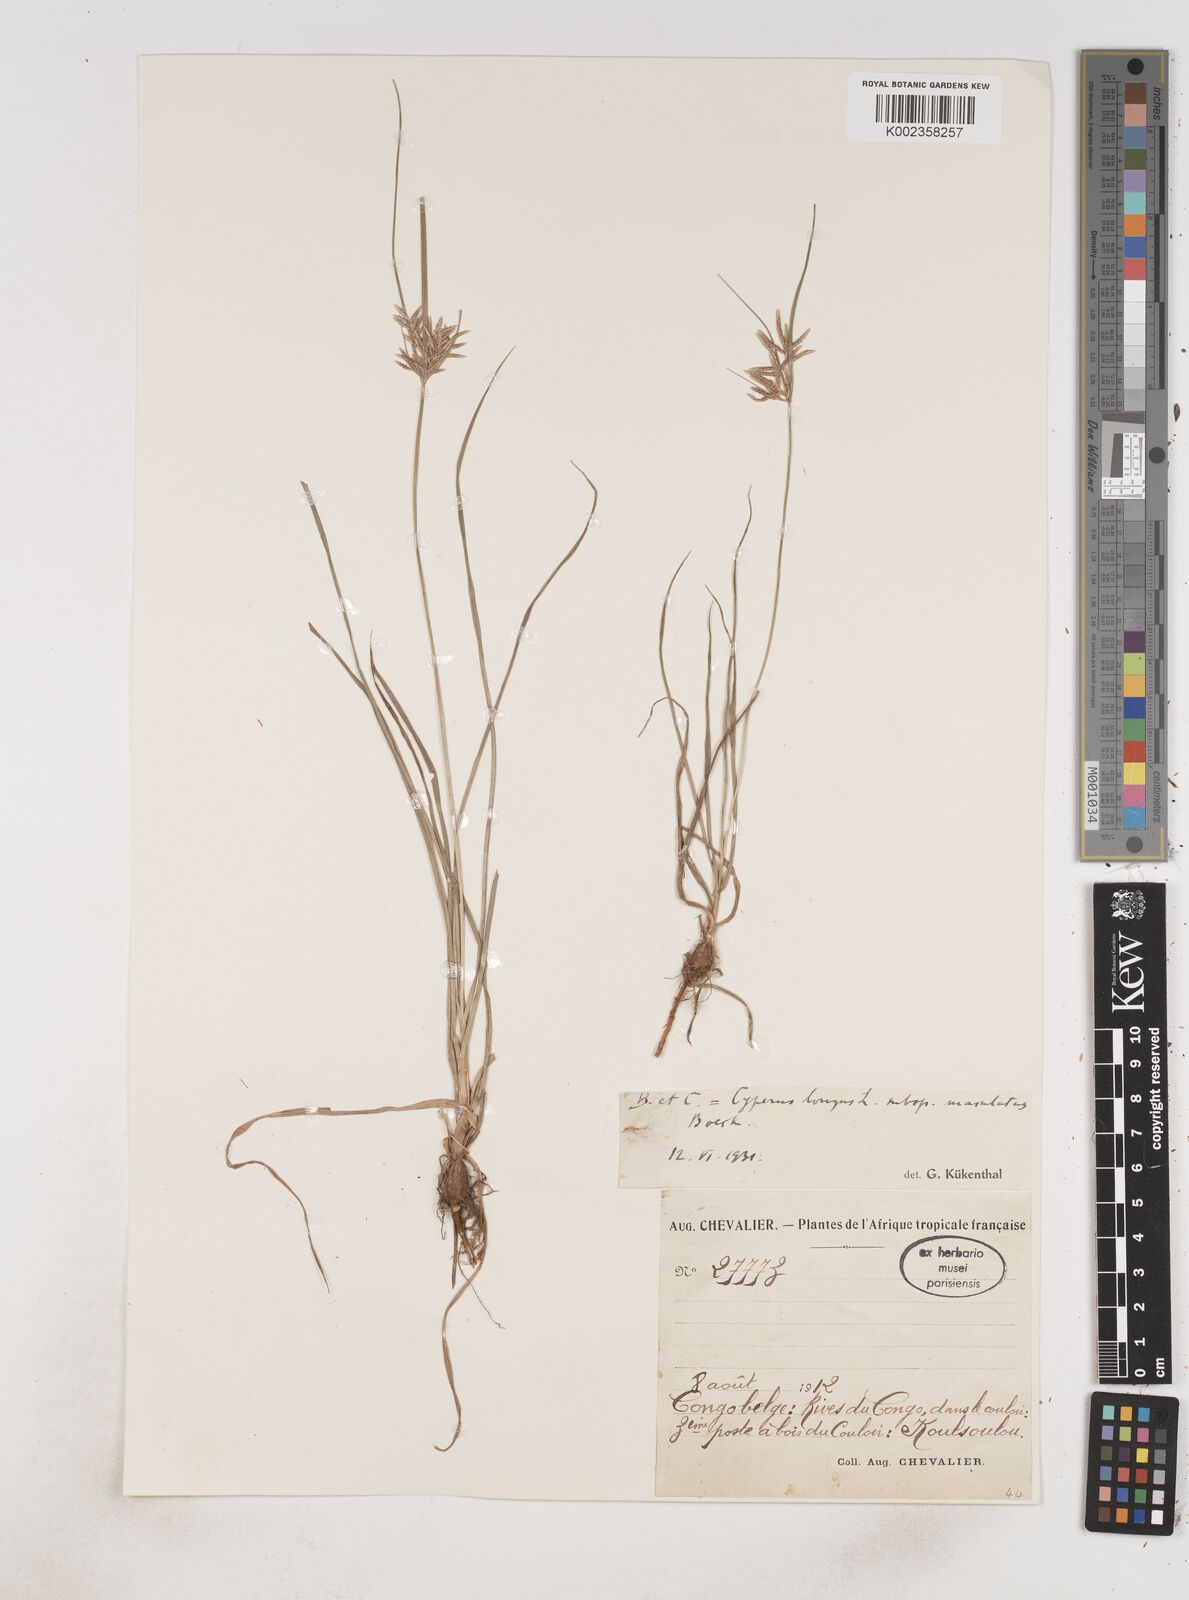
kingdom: Plantae
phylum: Tracheophyta
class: Liliopsida
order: Poales
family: Cyperaceae
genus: Cyperus
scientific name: Cyperus maculatus
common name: Maculated sedge
